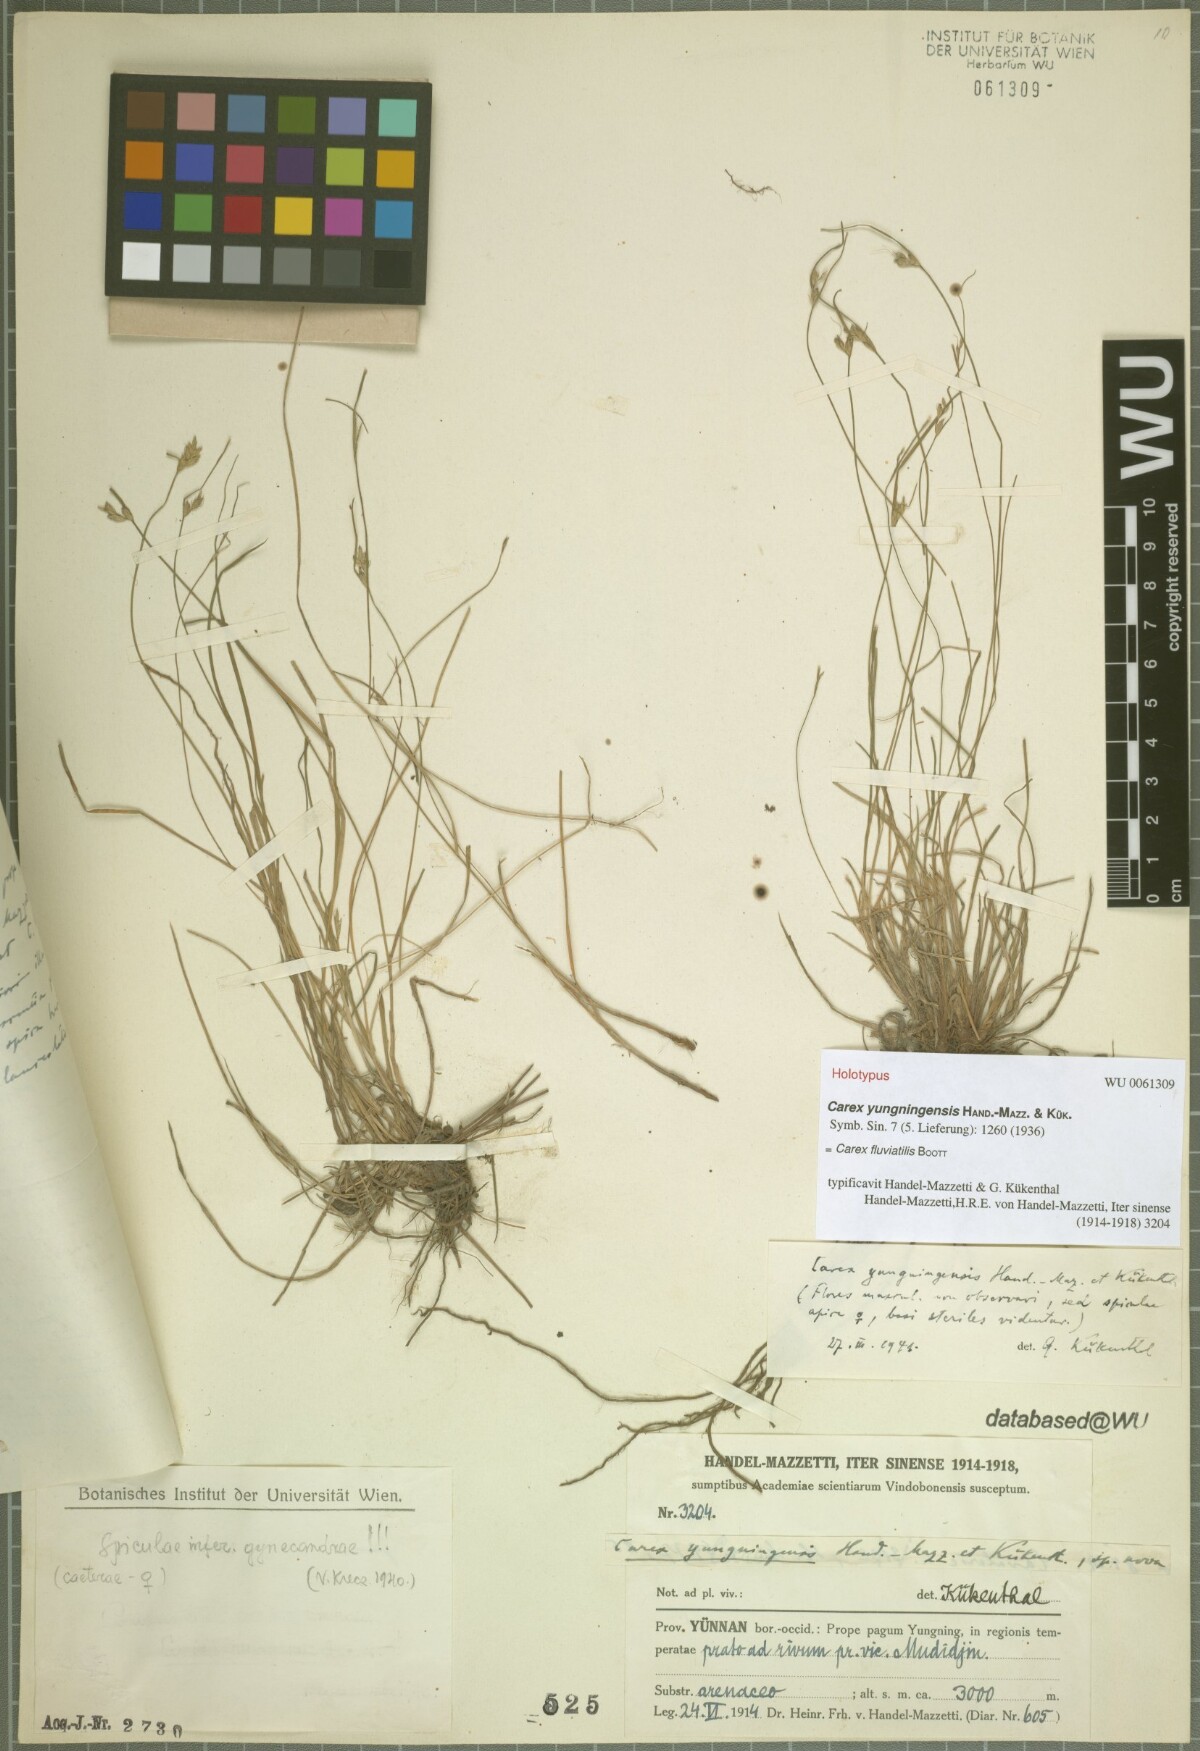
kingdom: Plantae
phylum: Tracheophyta
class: Liliopsida
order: Poales
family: Cyperaceae
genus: Carex
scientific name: Carex fluviatilis
